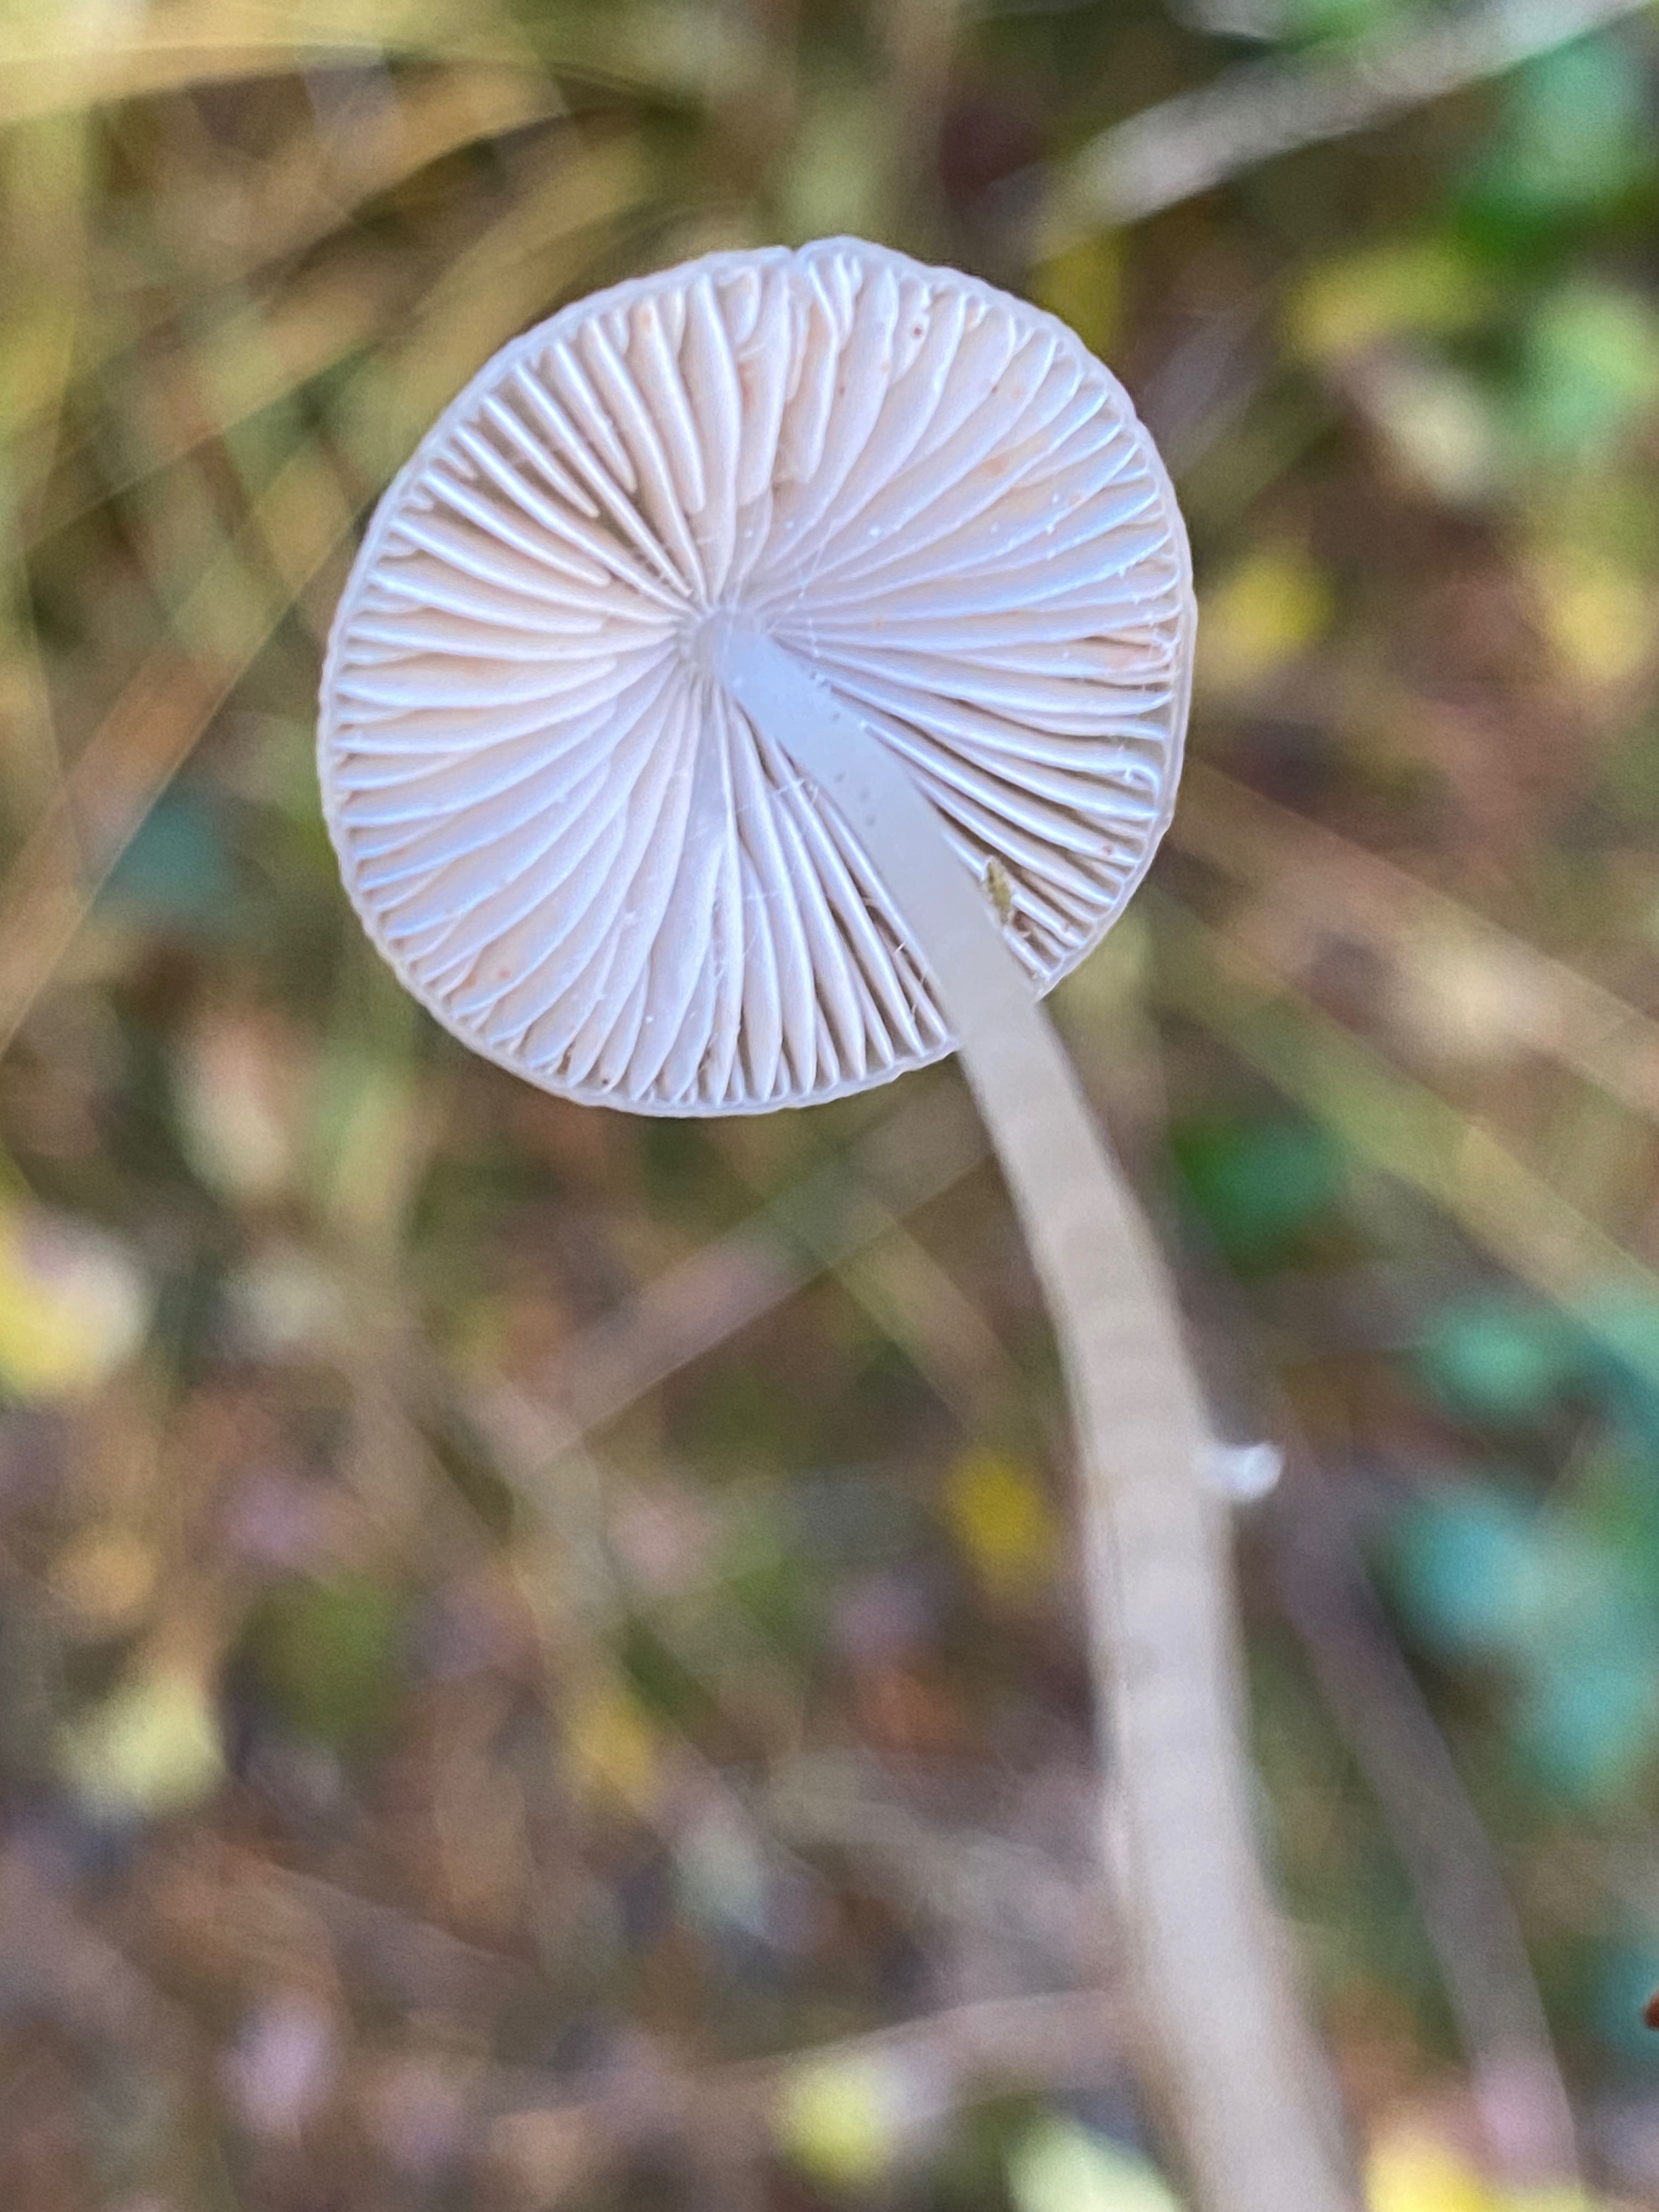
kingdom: Fungi
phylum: Basidiomycota
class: Agaricomycetes
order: Agaricales
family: Mycenaceae
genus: Mycena
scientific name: Mycena vitilis
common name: blankstokket huesvamp
